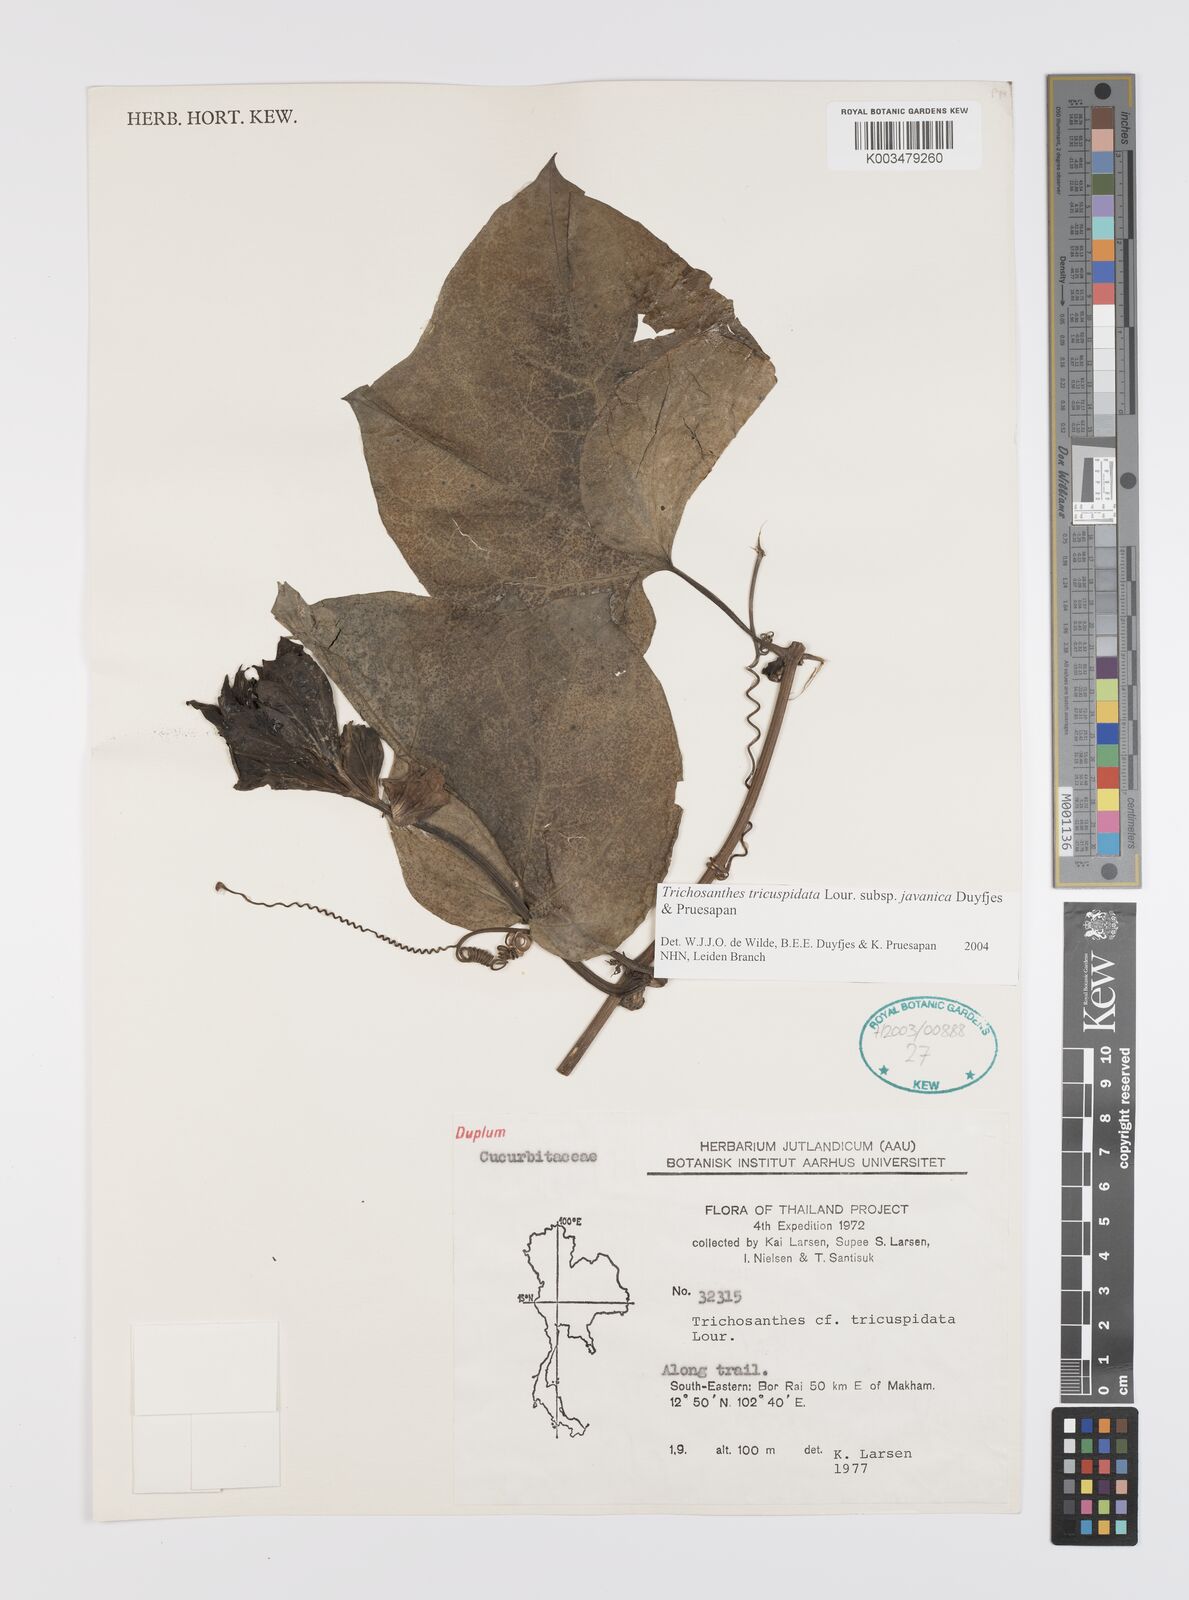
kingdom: Plantae
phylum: Tracheophyta
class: Magnoliopsida
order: Cucurbitales
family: Cucurbitaceae
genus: Trichosanthes
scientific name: Trichosanthes tricuspidata
